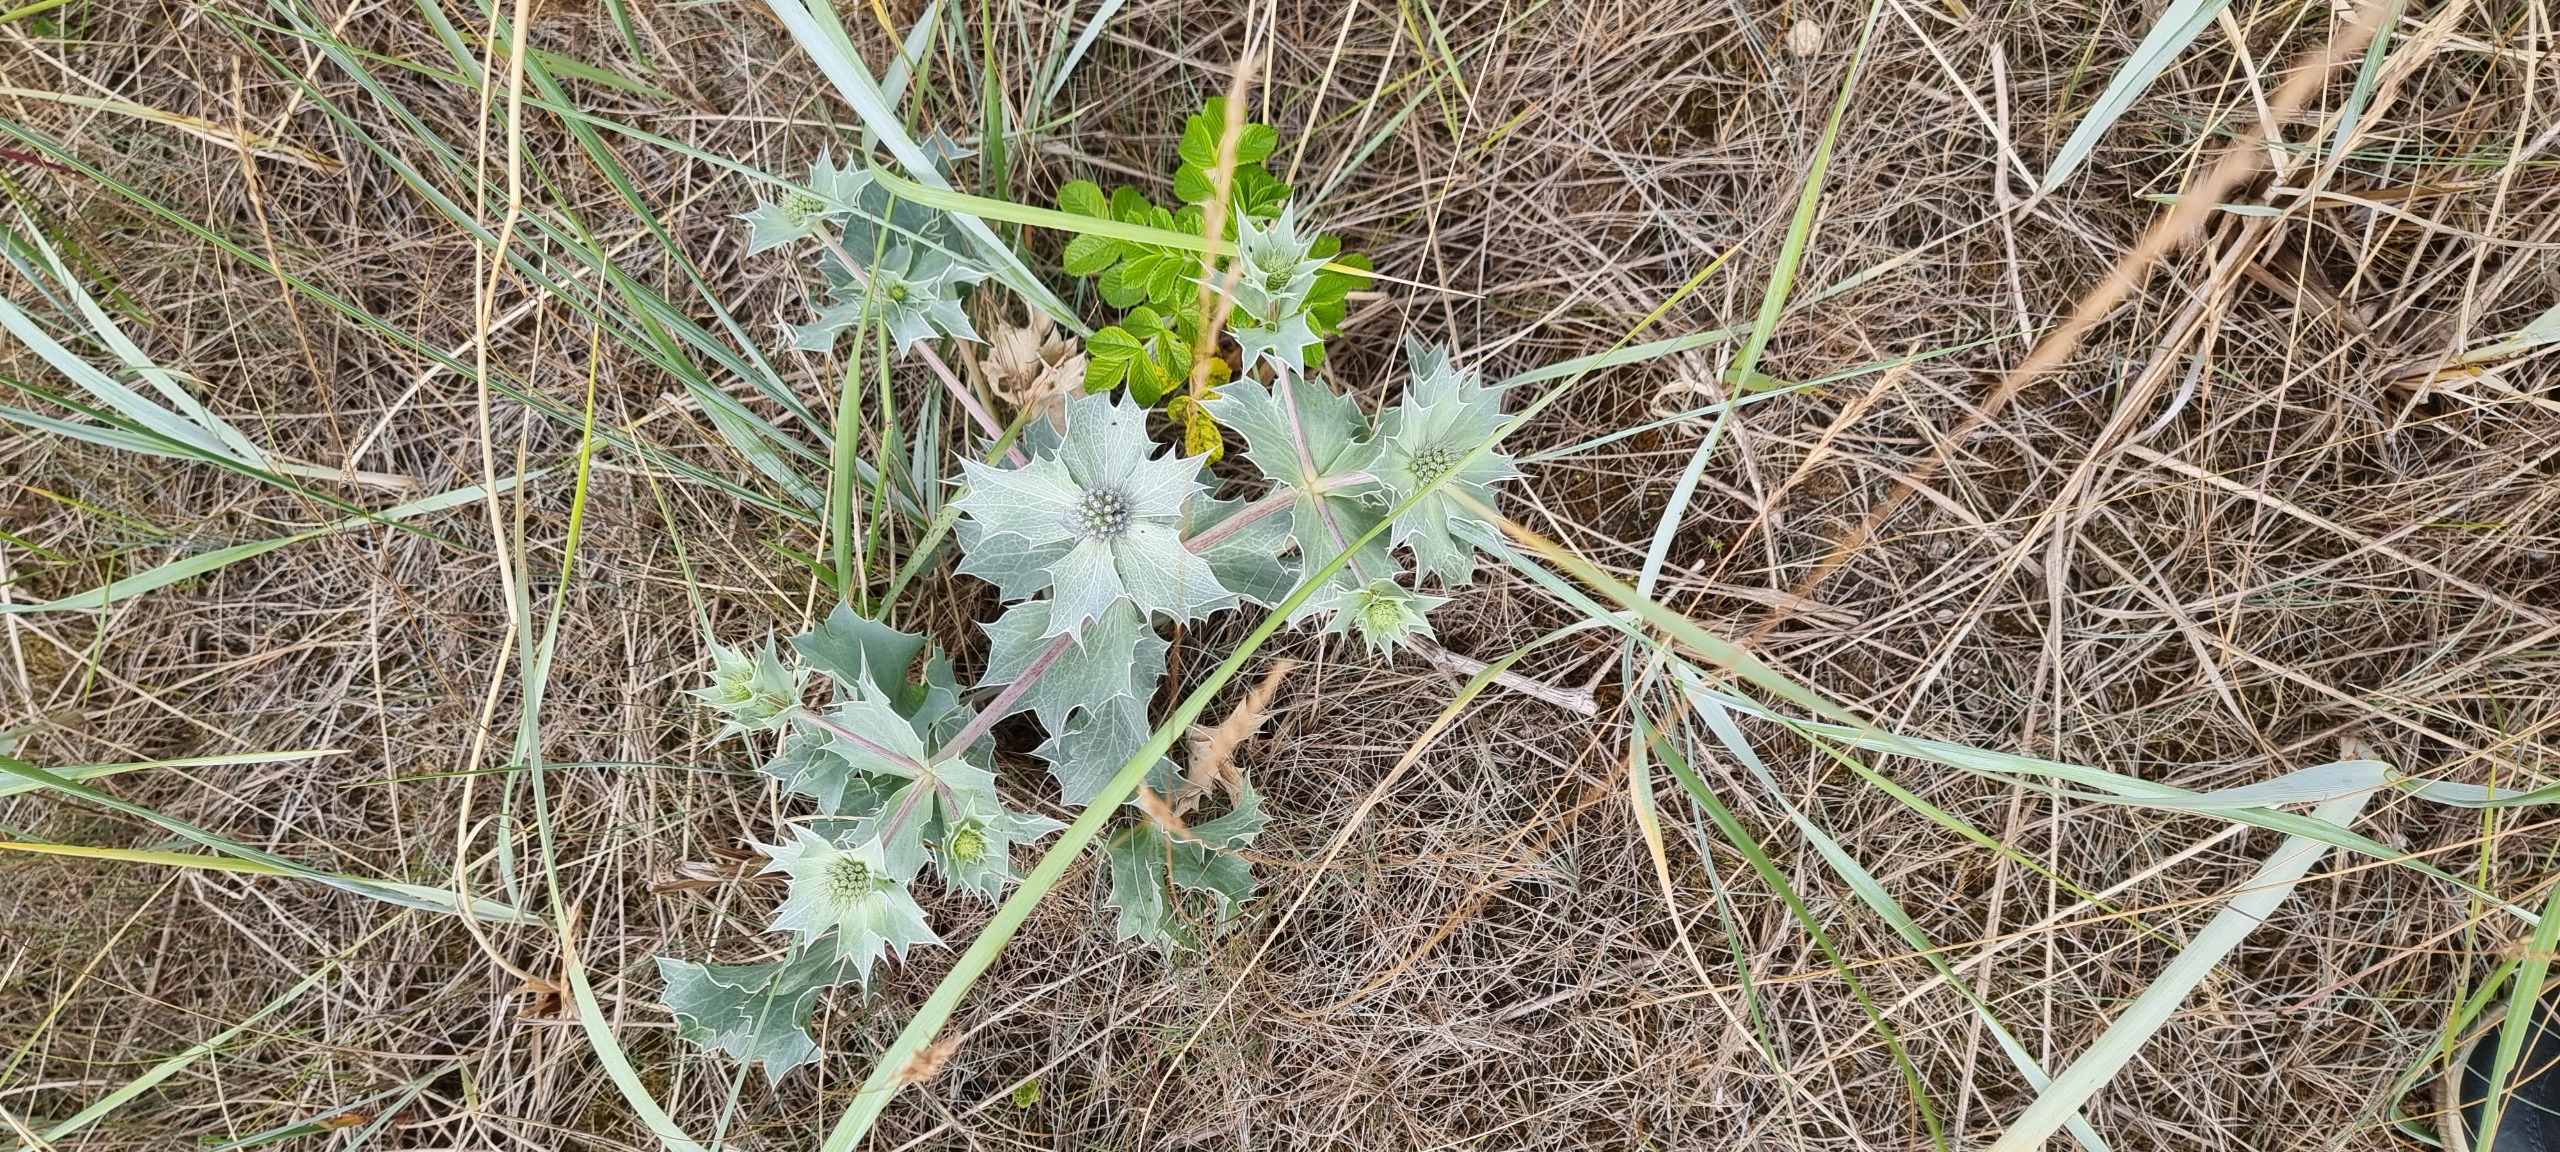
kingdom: Plantae
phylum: Tracheophyta
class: Magnoliopsida
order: Apiales
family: Apiaceae
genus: Eryngium
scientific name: Eryngium maritimum
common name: Strand-mandstro
